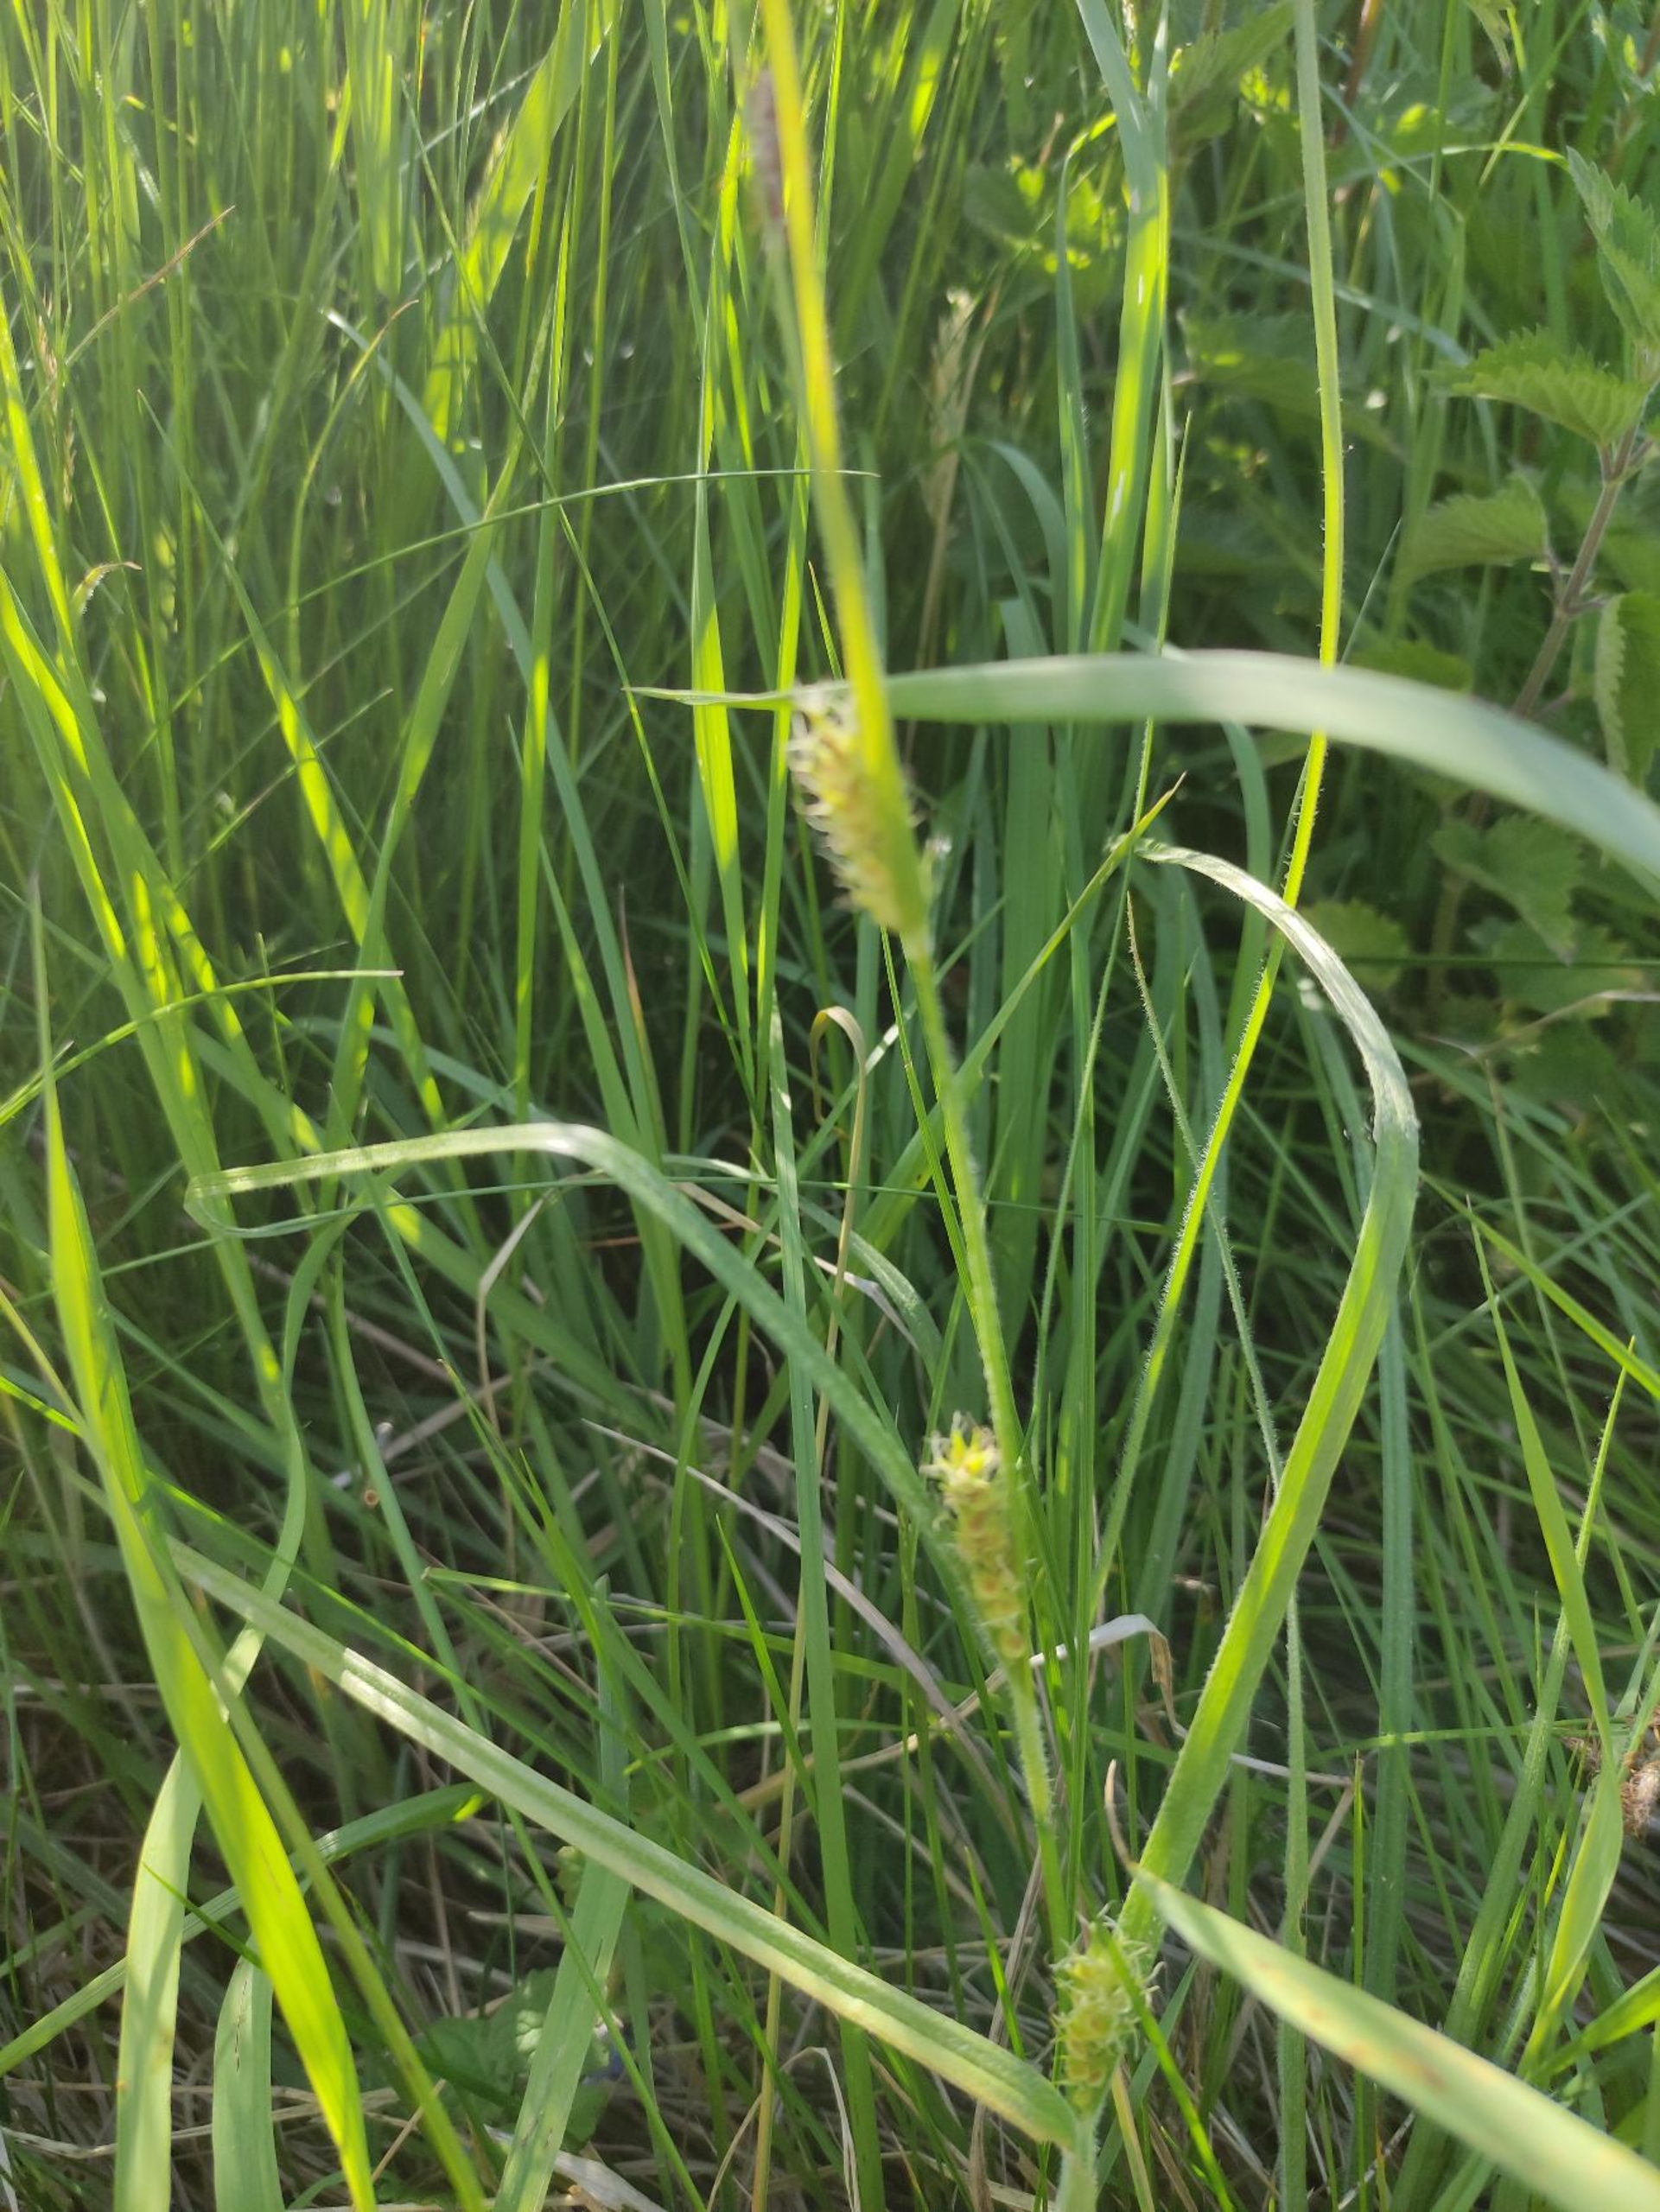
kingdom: Plantae
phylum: Tracheophyta
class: Liliopsida
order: Poales
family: Cyperaceae
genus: Carex
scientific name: Carex hirta
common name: Håret star
